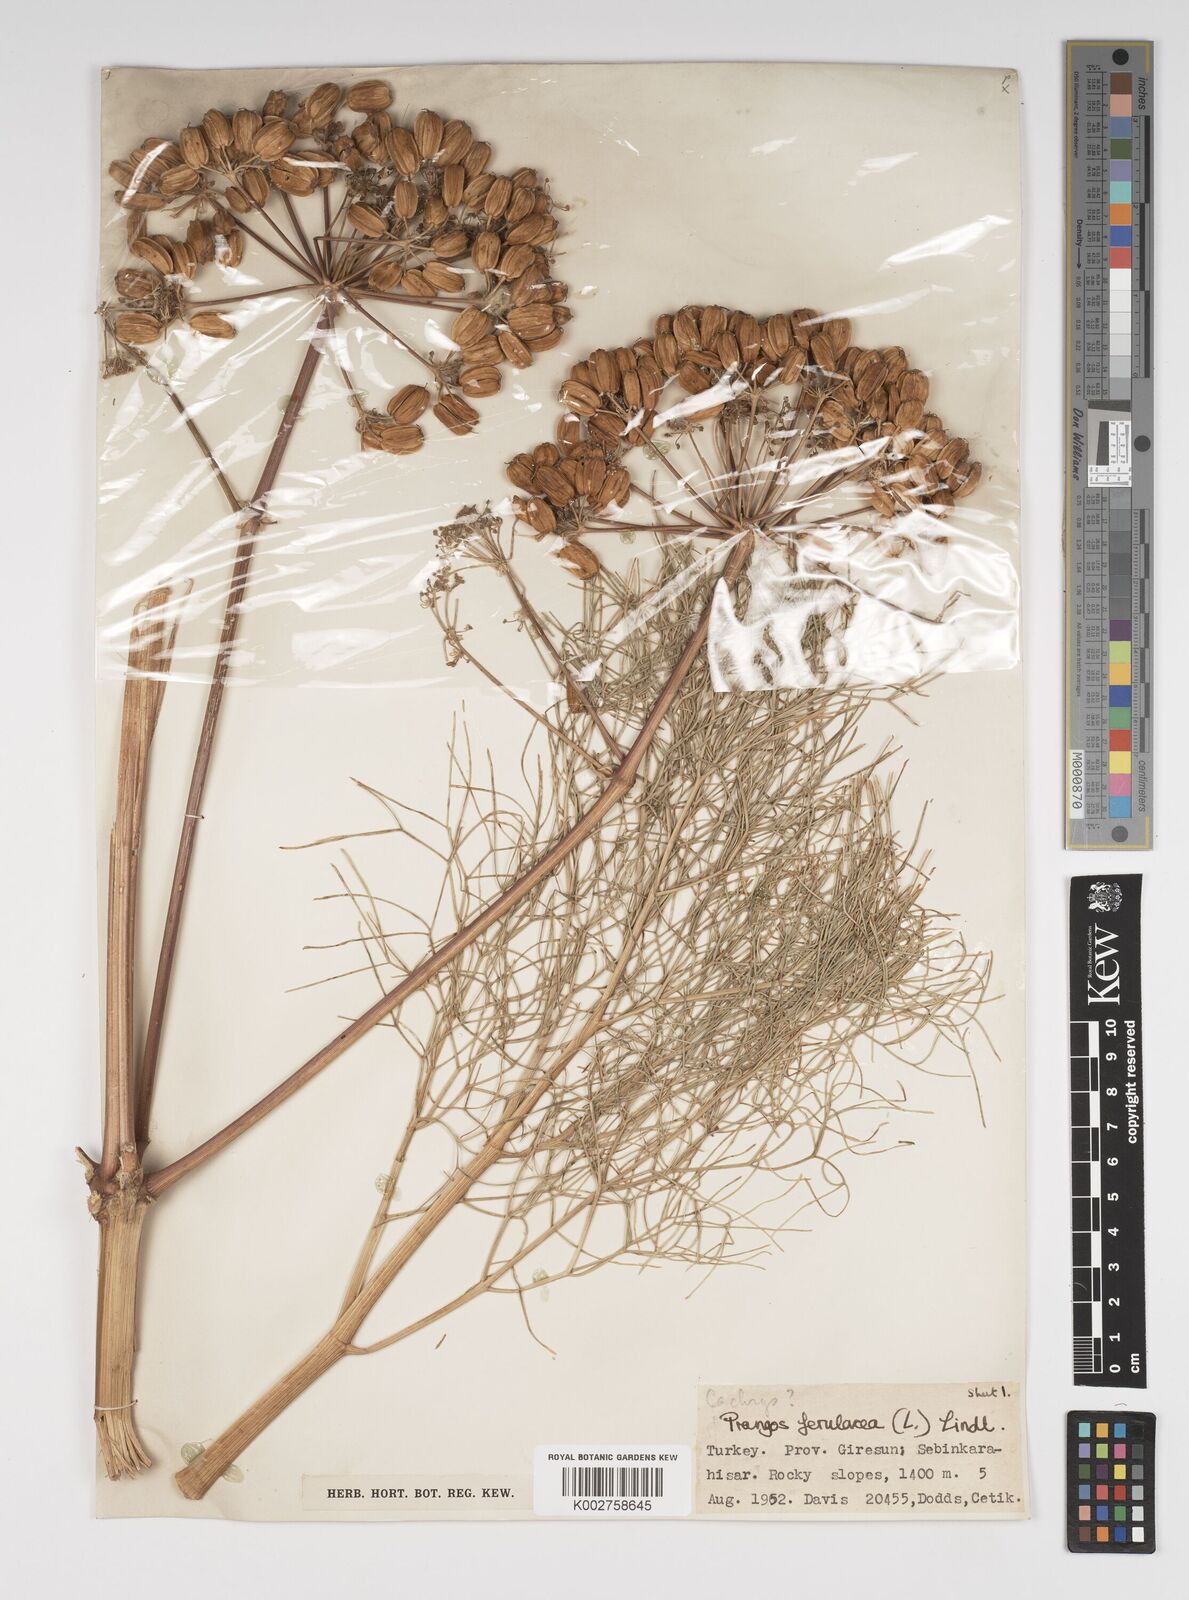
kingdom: Plantae
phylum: Tracheophyta
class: Magnoliopsida
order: Apiales
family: Apiaceae
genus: Prangos
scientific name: Prangos ferulacea
